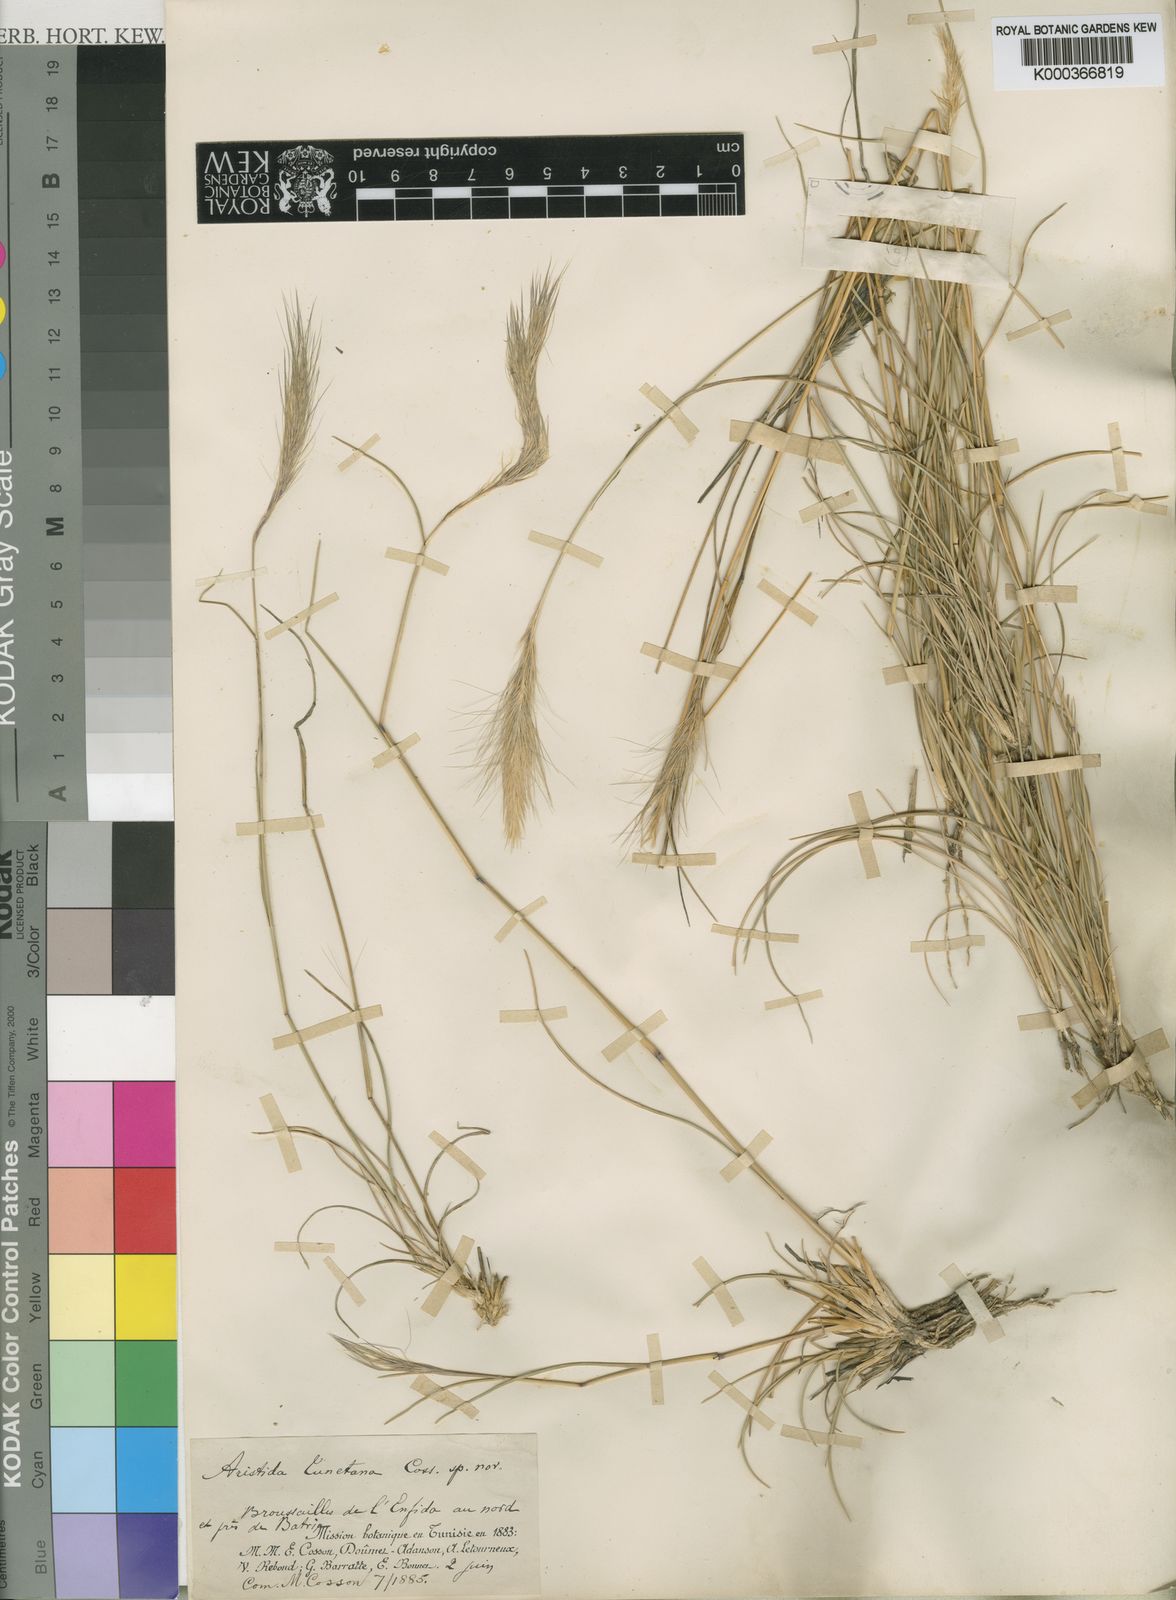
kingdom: Plantae
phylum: Tracheophyta
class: Liliopsida
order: Poales
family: Poaceae
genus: Aristida
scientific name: Aristida congesta
